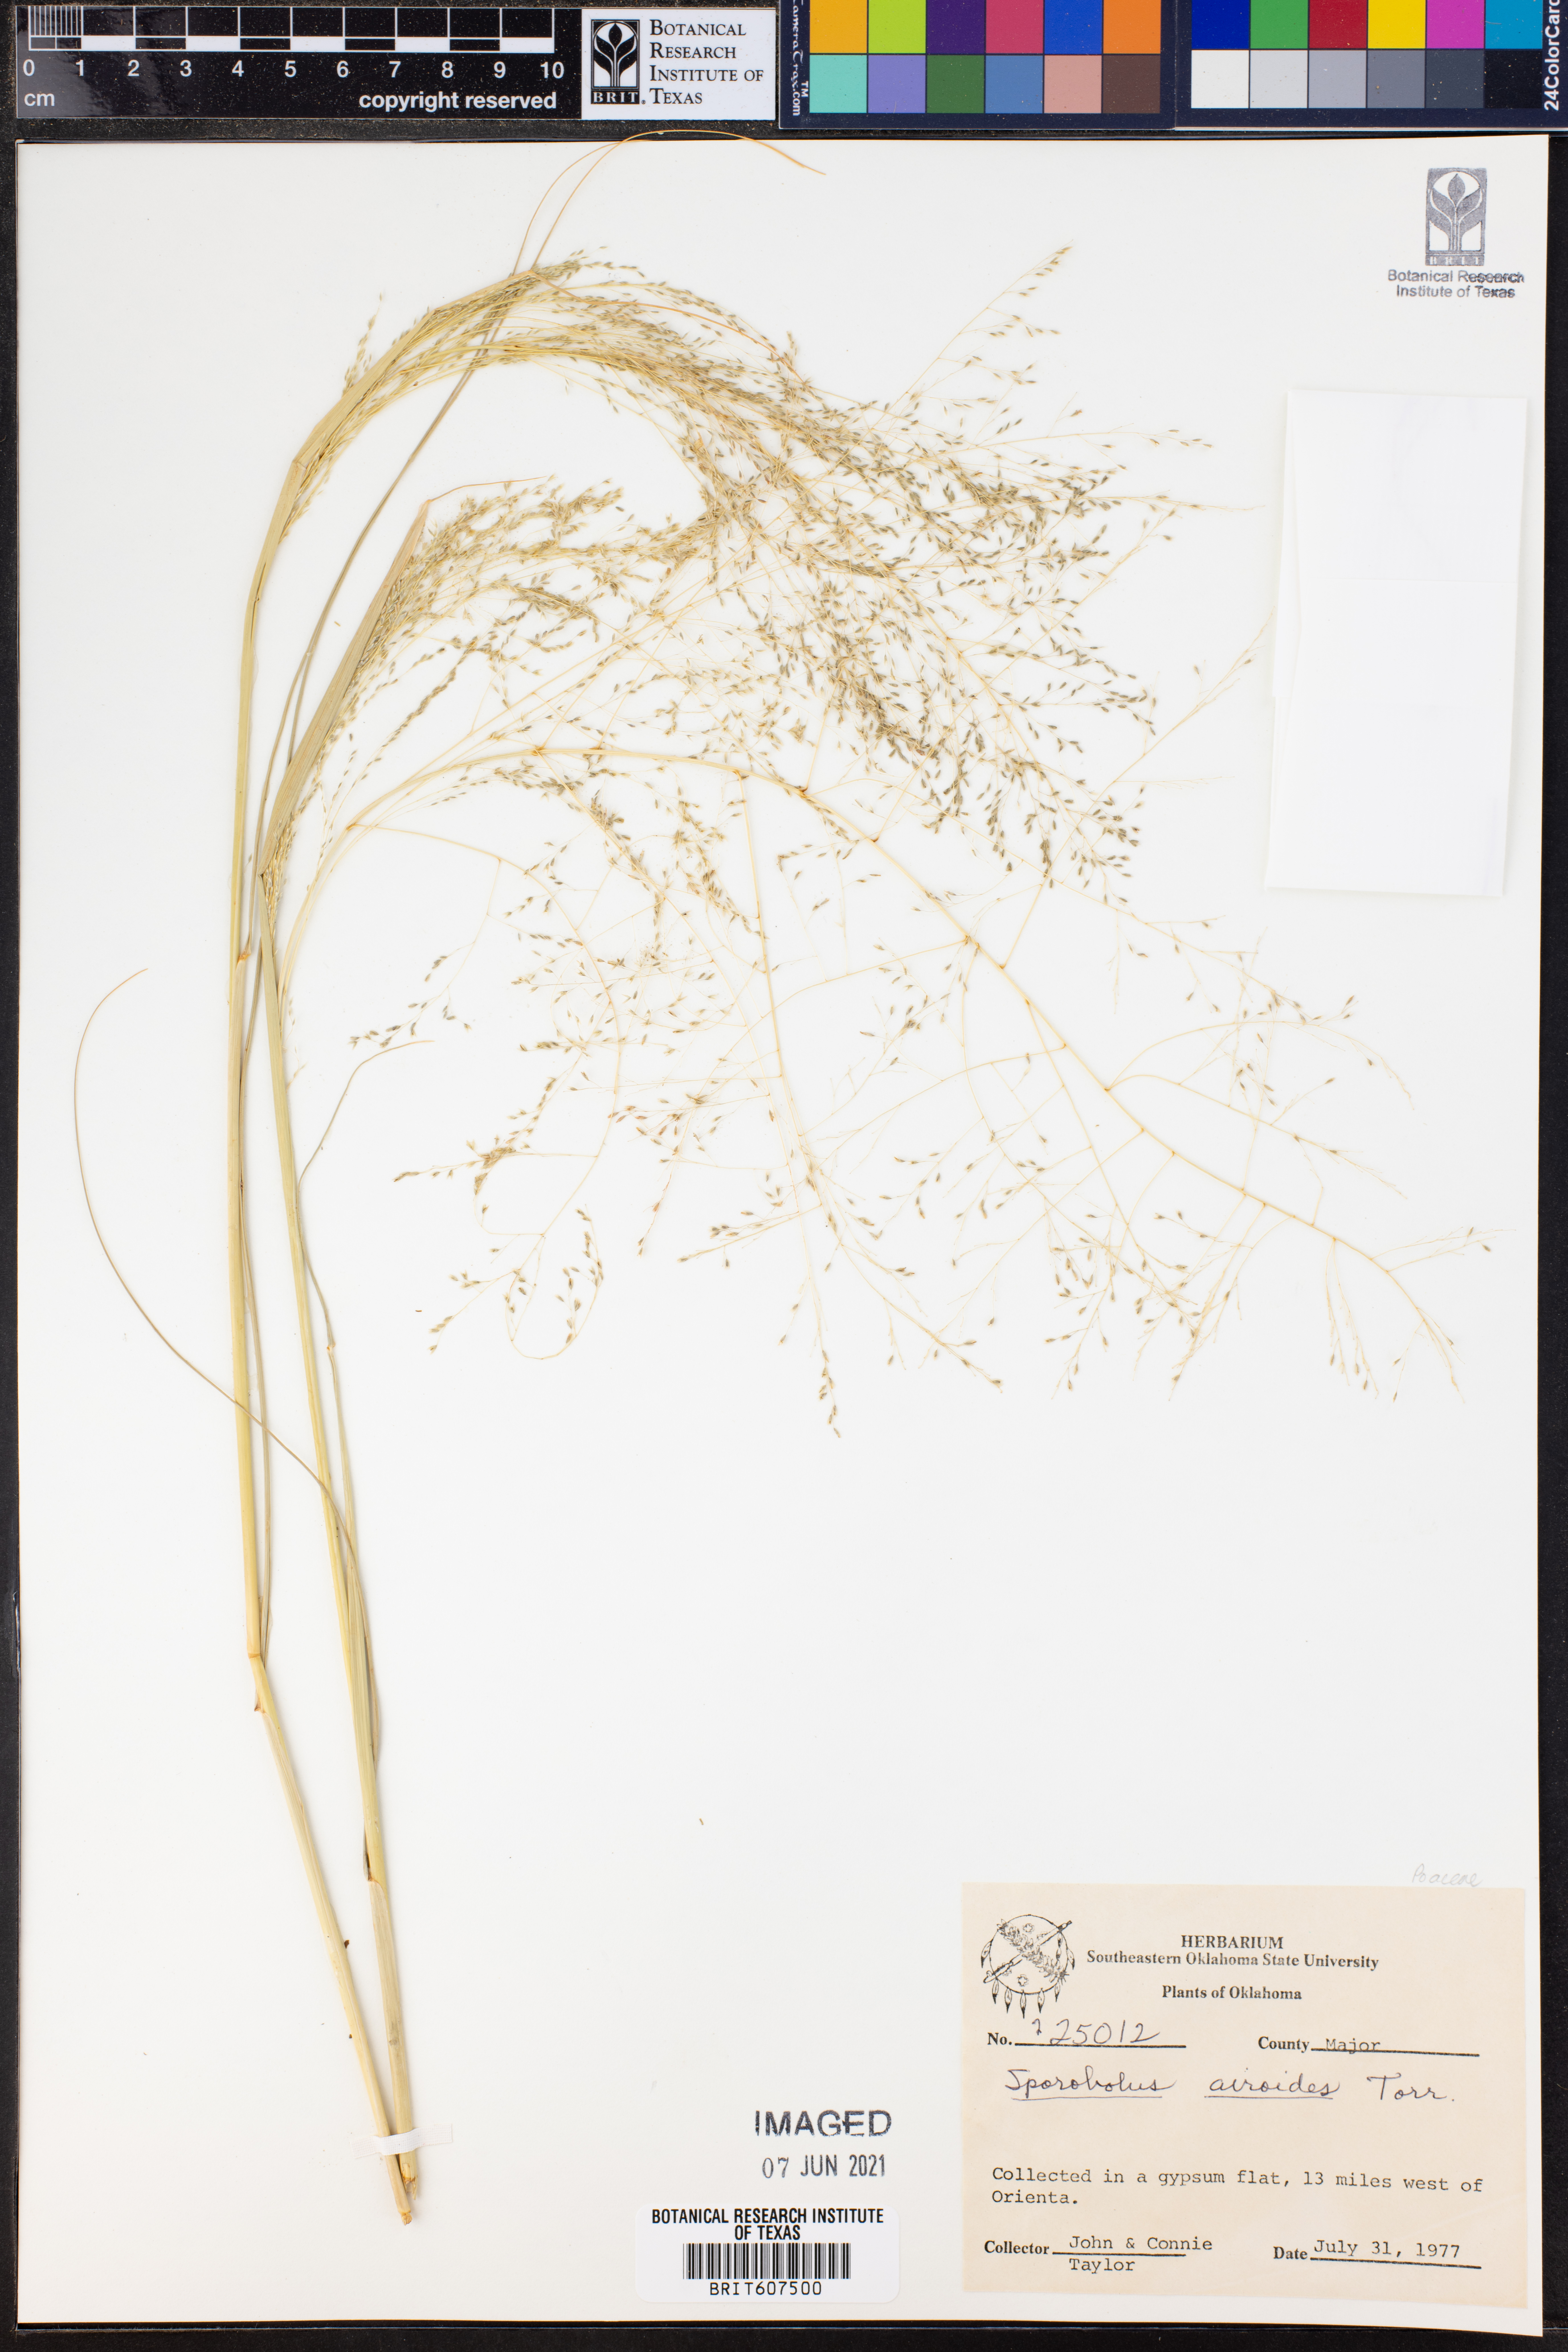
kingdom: Plantae
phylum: Tracheophyta
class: Liliopsida
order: Poales
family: Poaceae
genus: Sporobolus
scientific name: Sporobolus airoides
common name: Alkali sacaton
